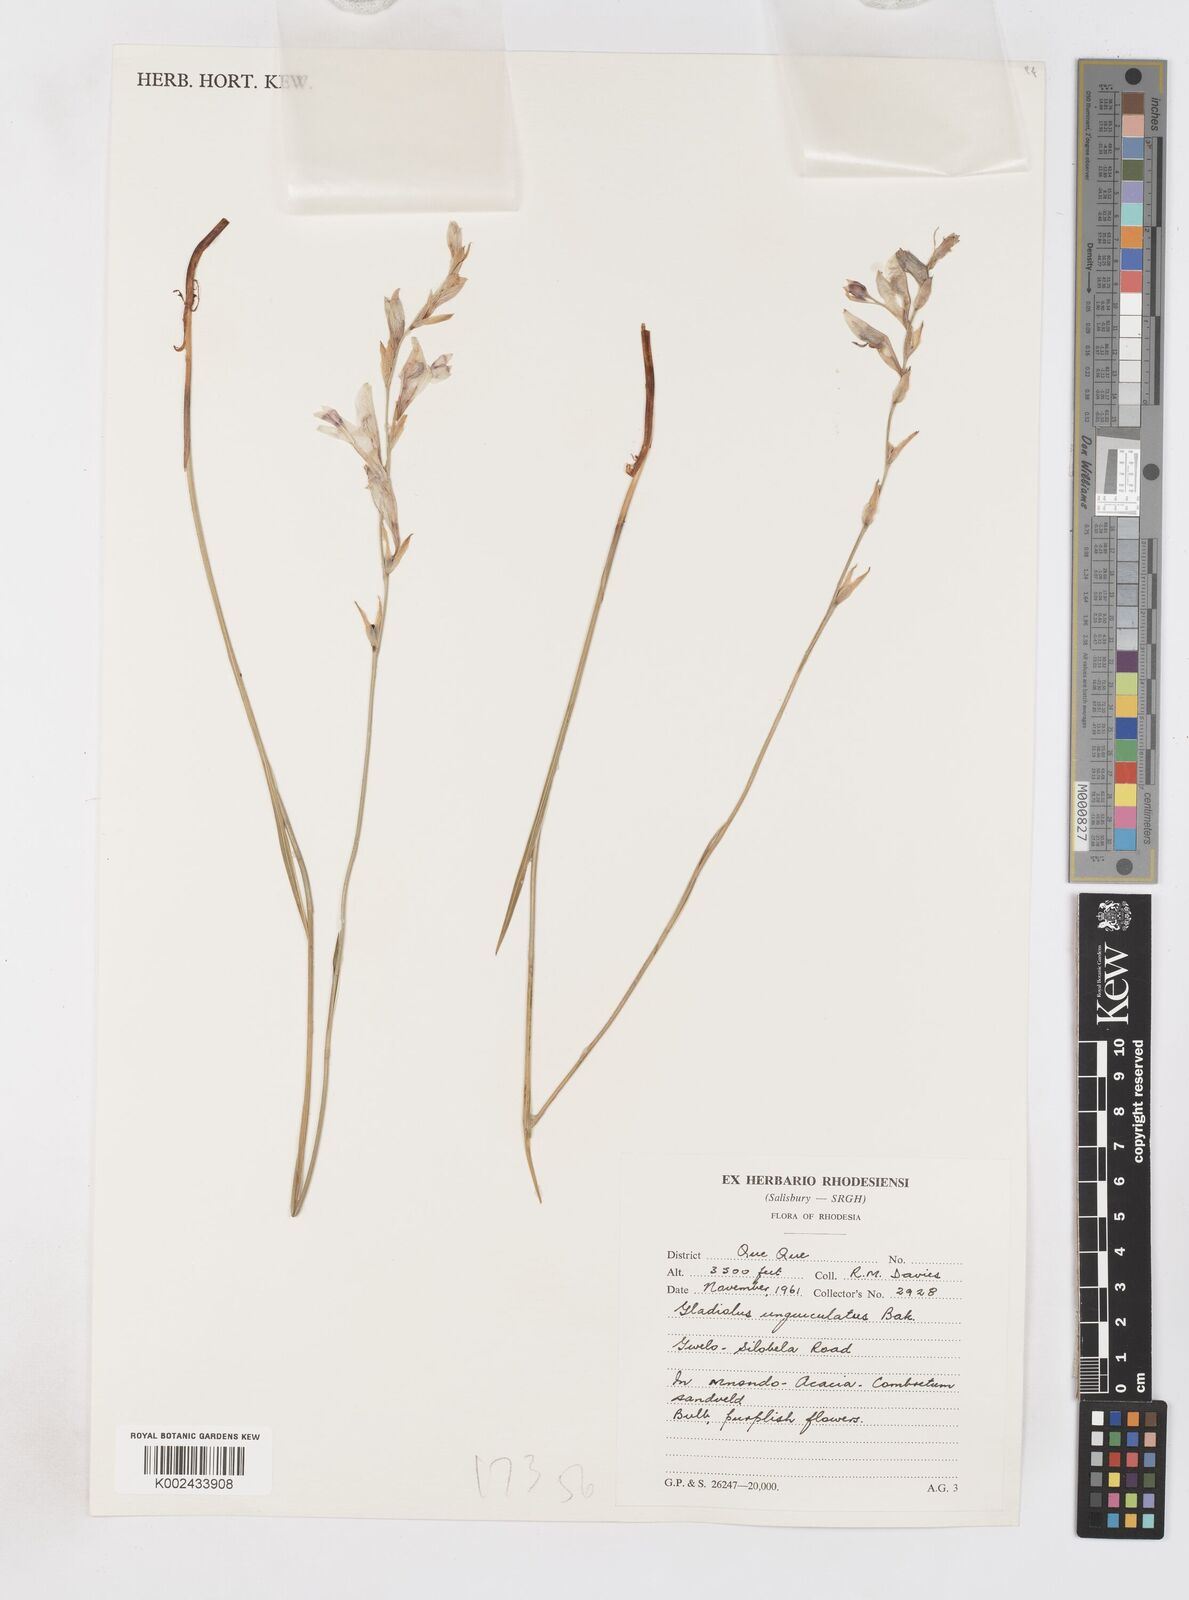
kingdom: Plantae
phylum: Tracheophyta
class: Liliopsida
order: Asparagales
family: Iridaceae
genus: Gladiolus
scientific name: Gladiolus unguiculatus
